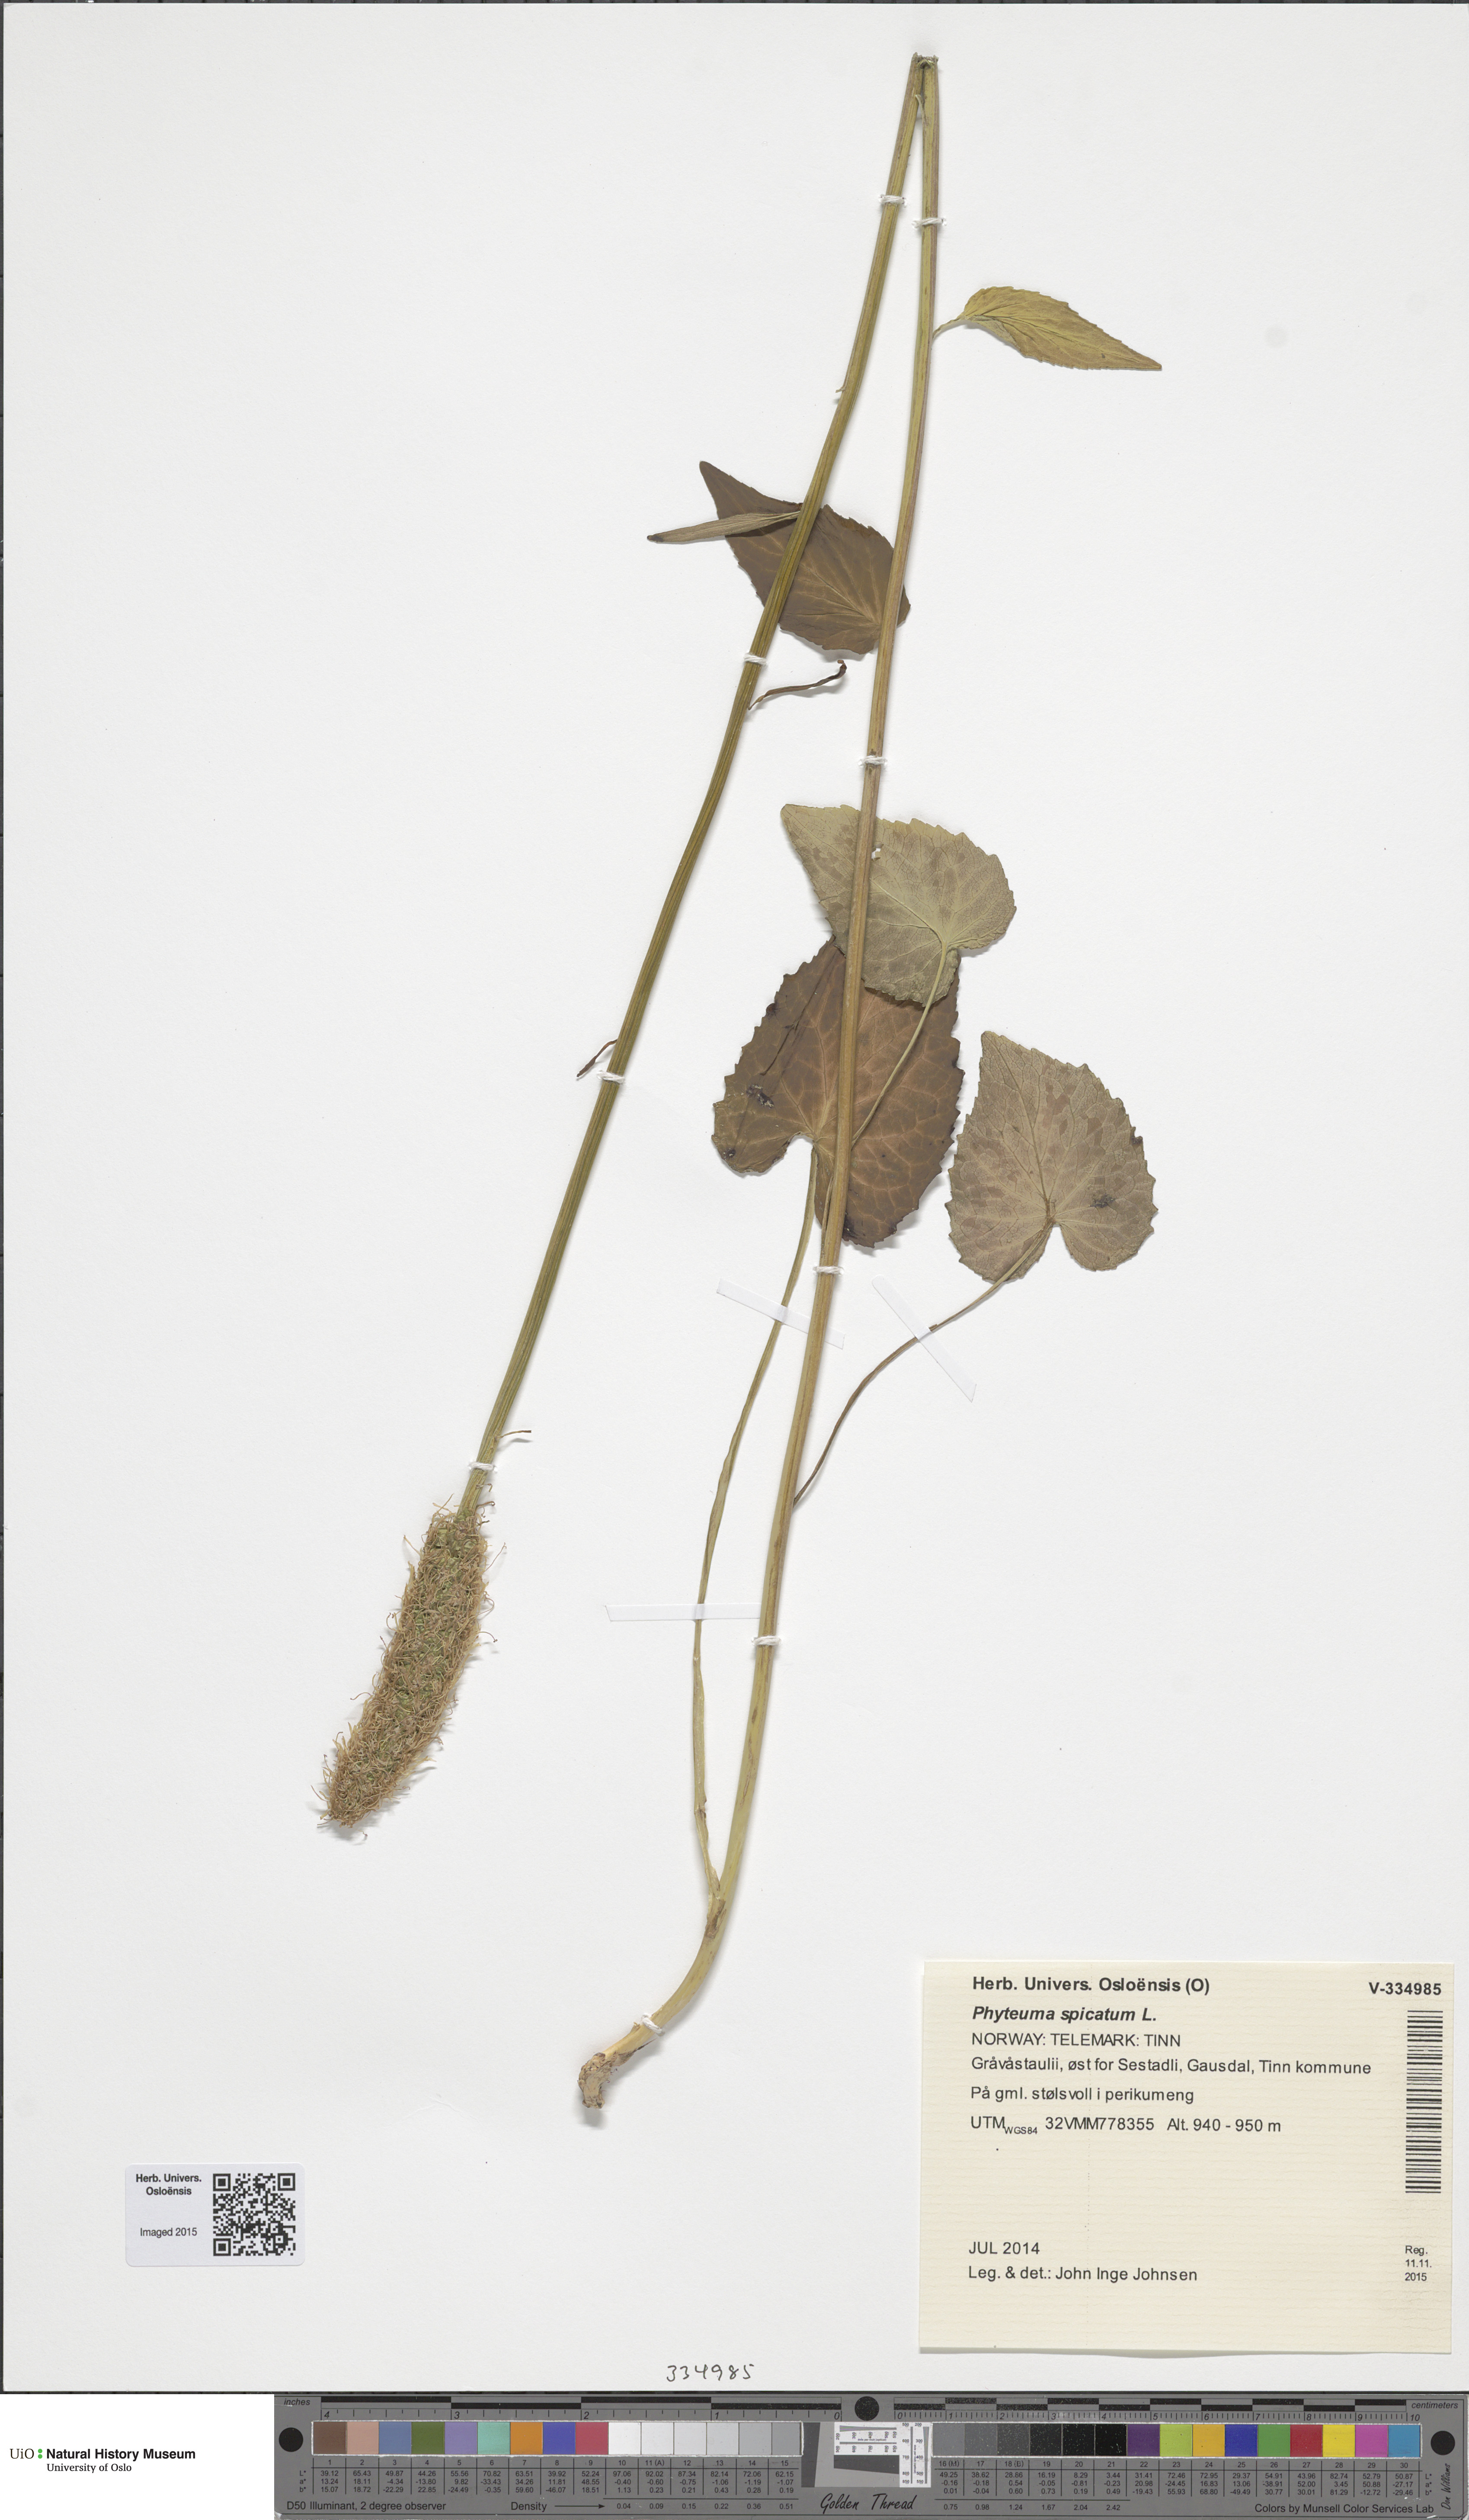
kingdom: Plantae
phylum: Tracheophyta
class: Magnoliopsida
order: Asterales
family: Campanulaceae
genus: Phyteuma
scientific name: Phyteuma spicatum
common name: Spiked rampion
